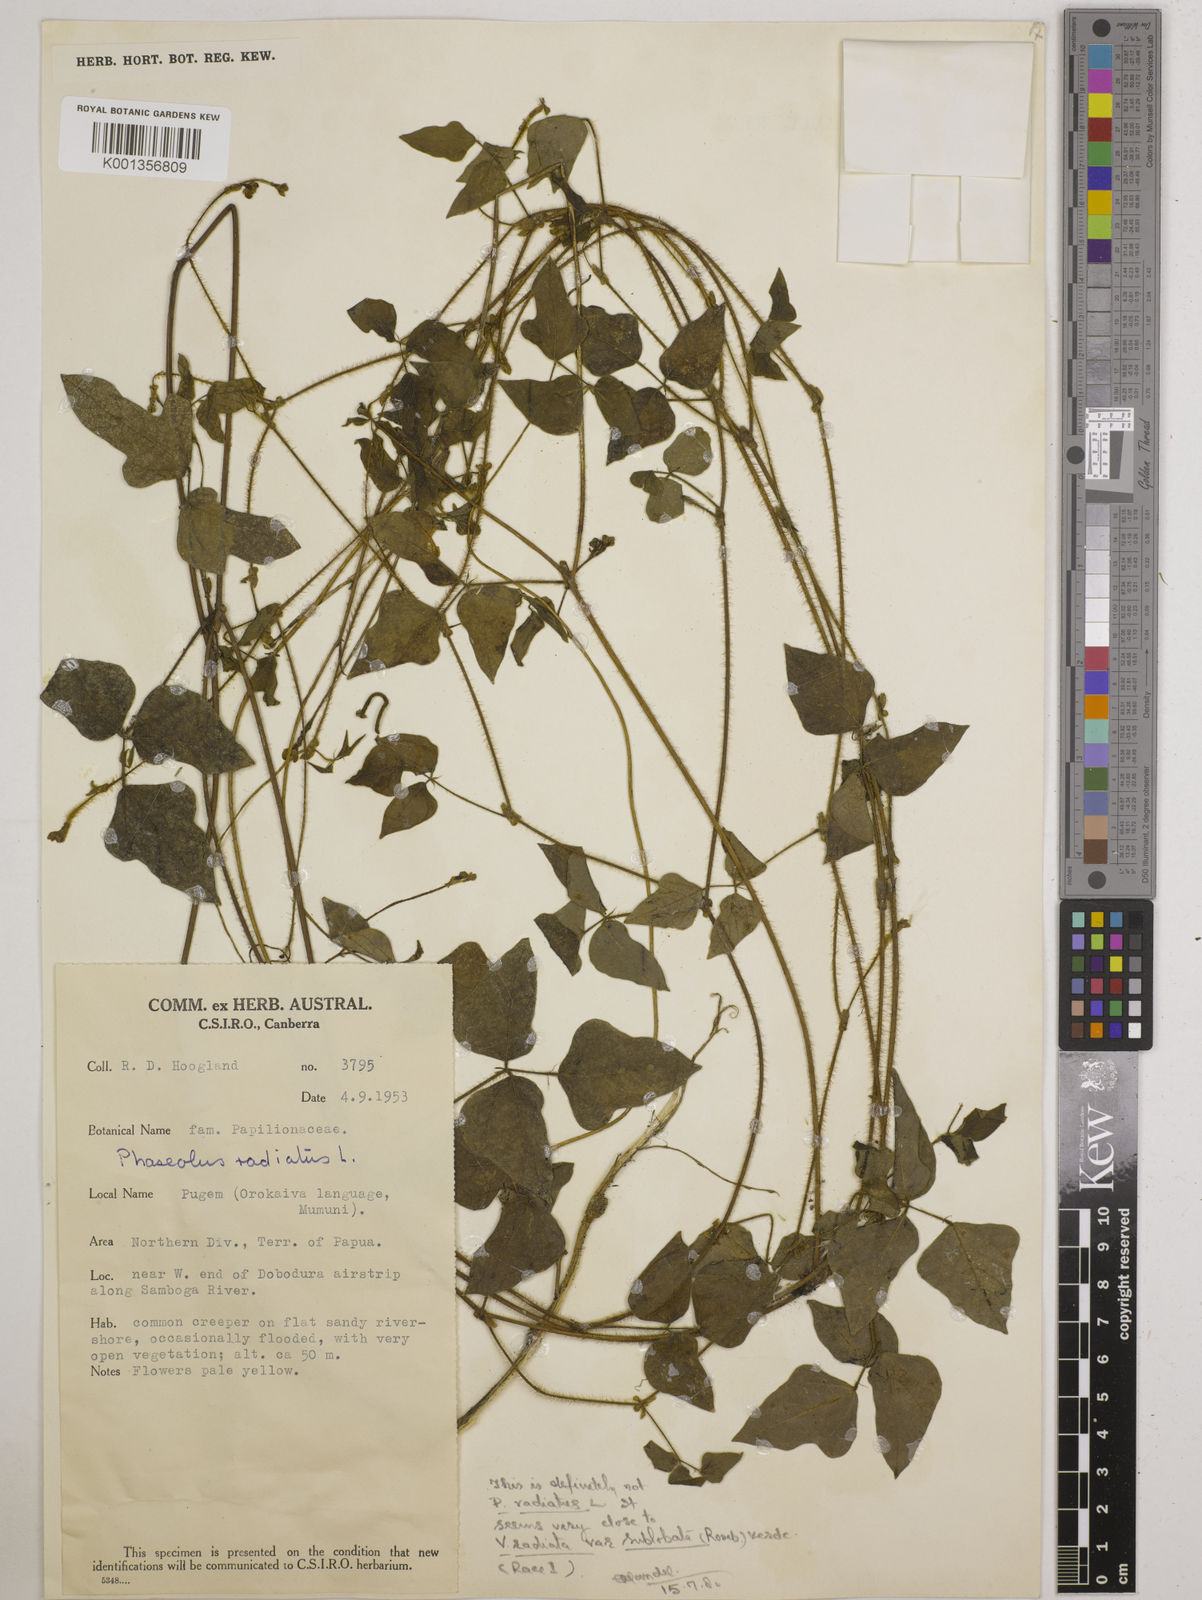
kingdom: Plantae
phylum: Tracheophyta
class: Magnoliopsida
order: Fabales
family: Fabaceae
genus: Vigna
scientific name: Vigna radiata
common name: Mung-bean
